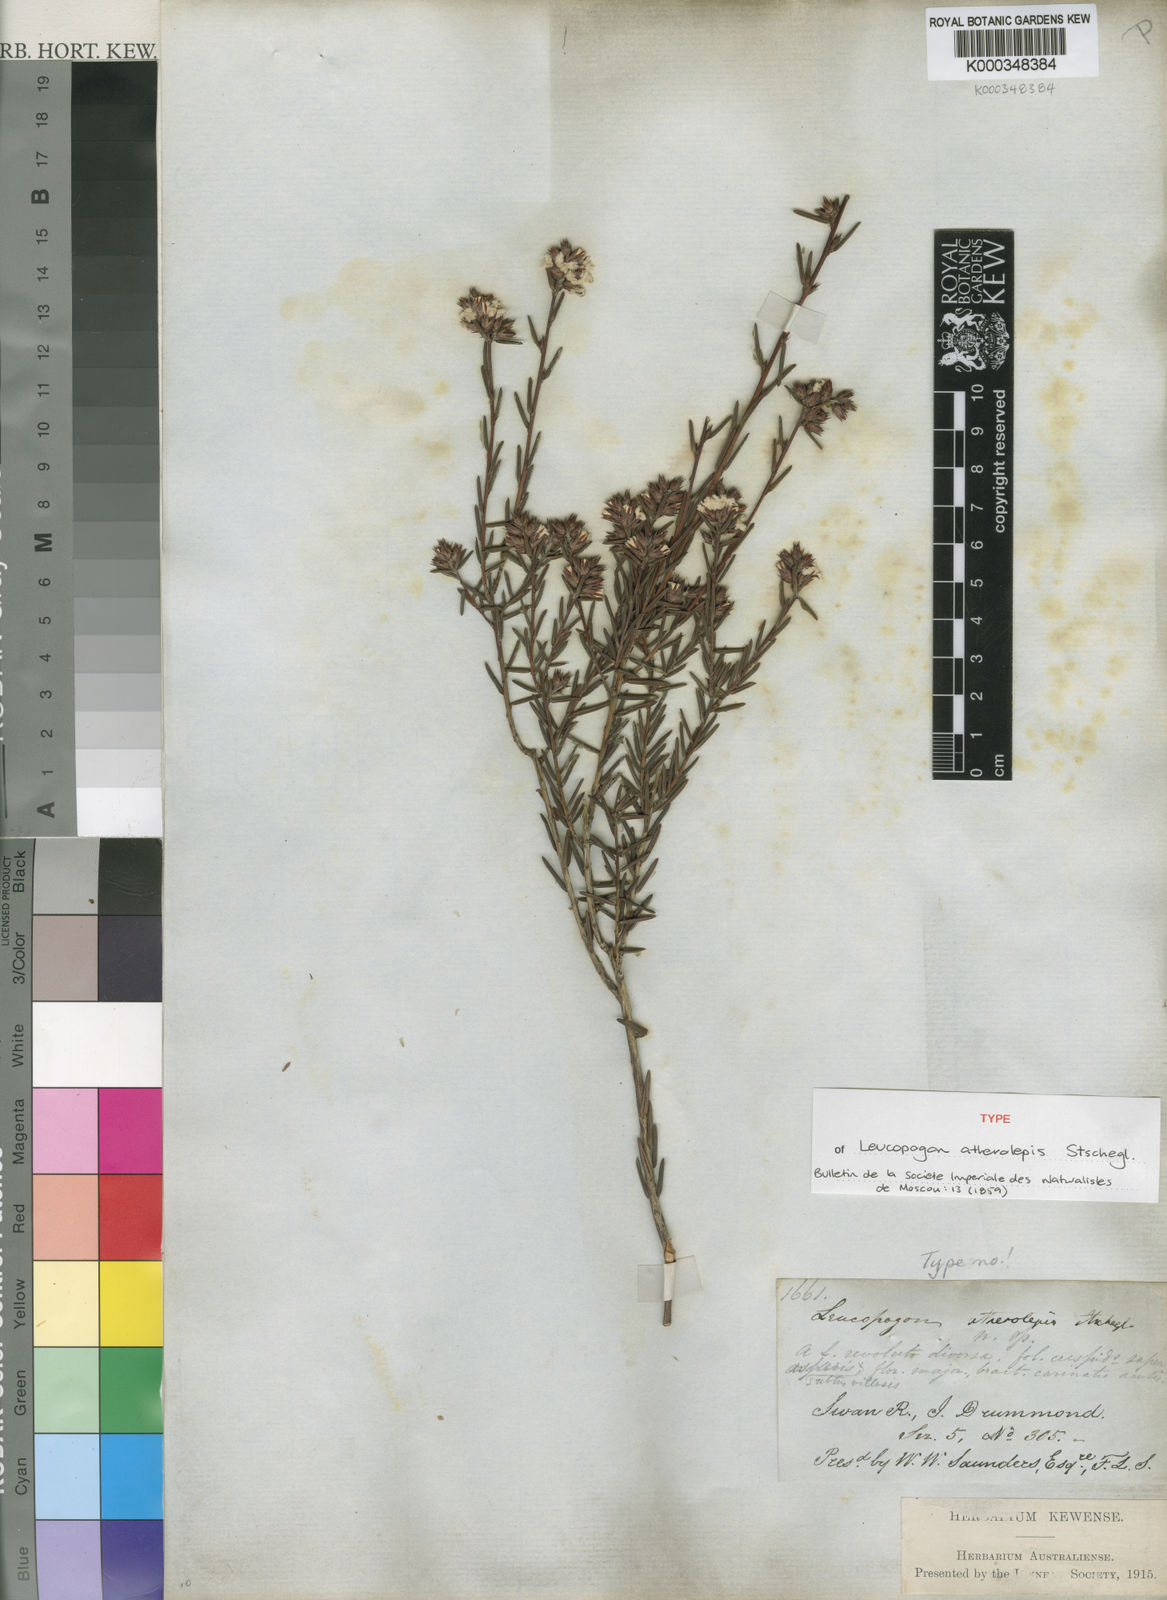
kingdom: Plantae
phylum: Tracheophyta
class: Magnoliopsida
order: Ericales
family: Ericaceae
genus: Leucopogon
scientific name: Leucopogon atherolepis
